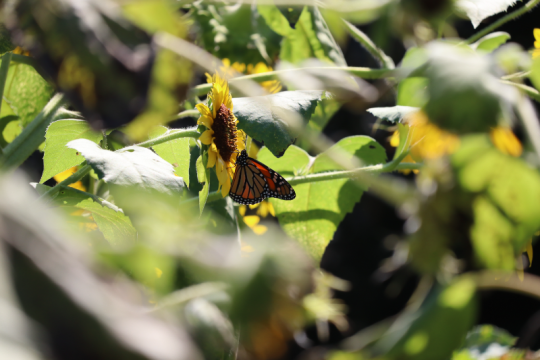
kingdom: Animalia
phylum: Arthropoda
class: Insecta
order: Lepidoptera
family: Nymphalidae
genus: Danaus
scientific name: Danaus plexippus
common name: Monarch
